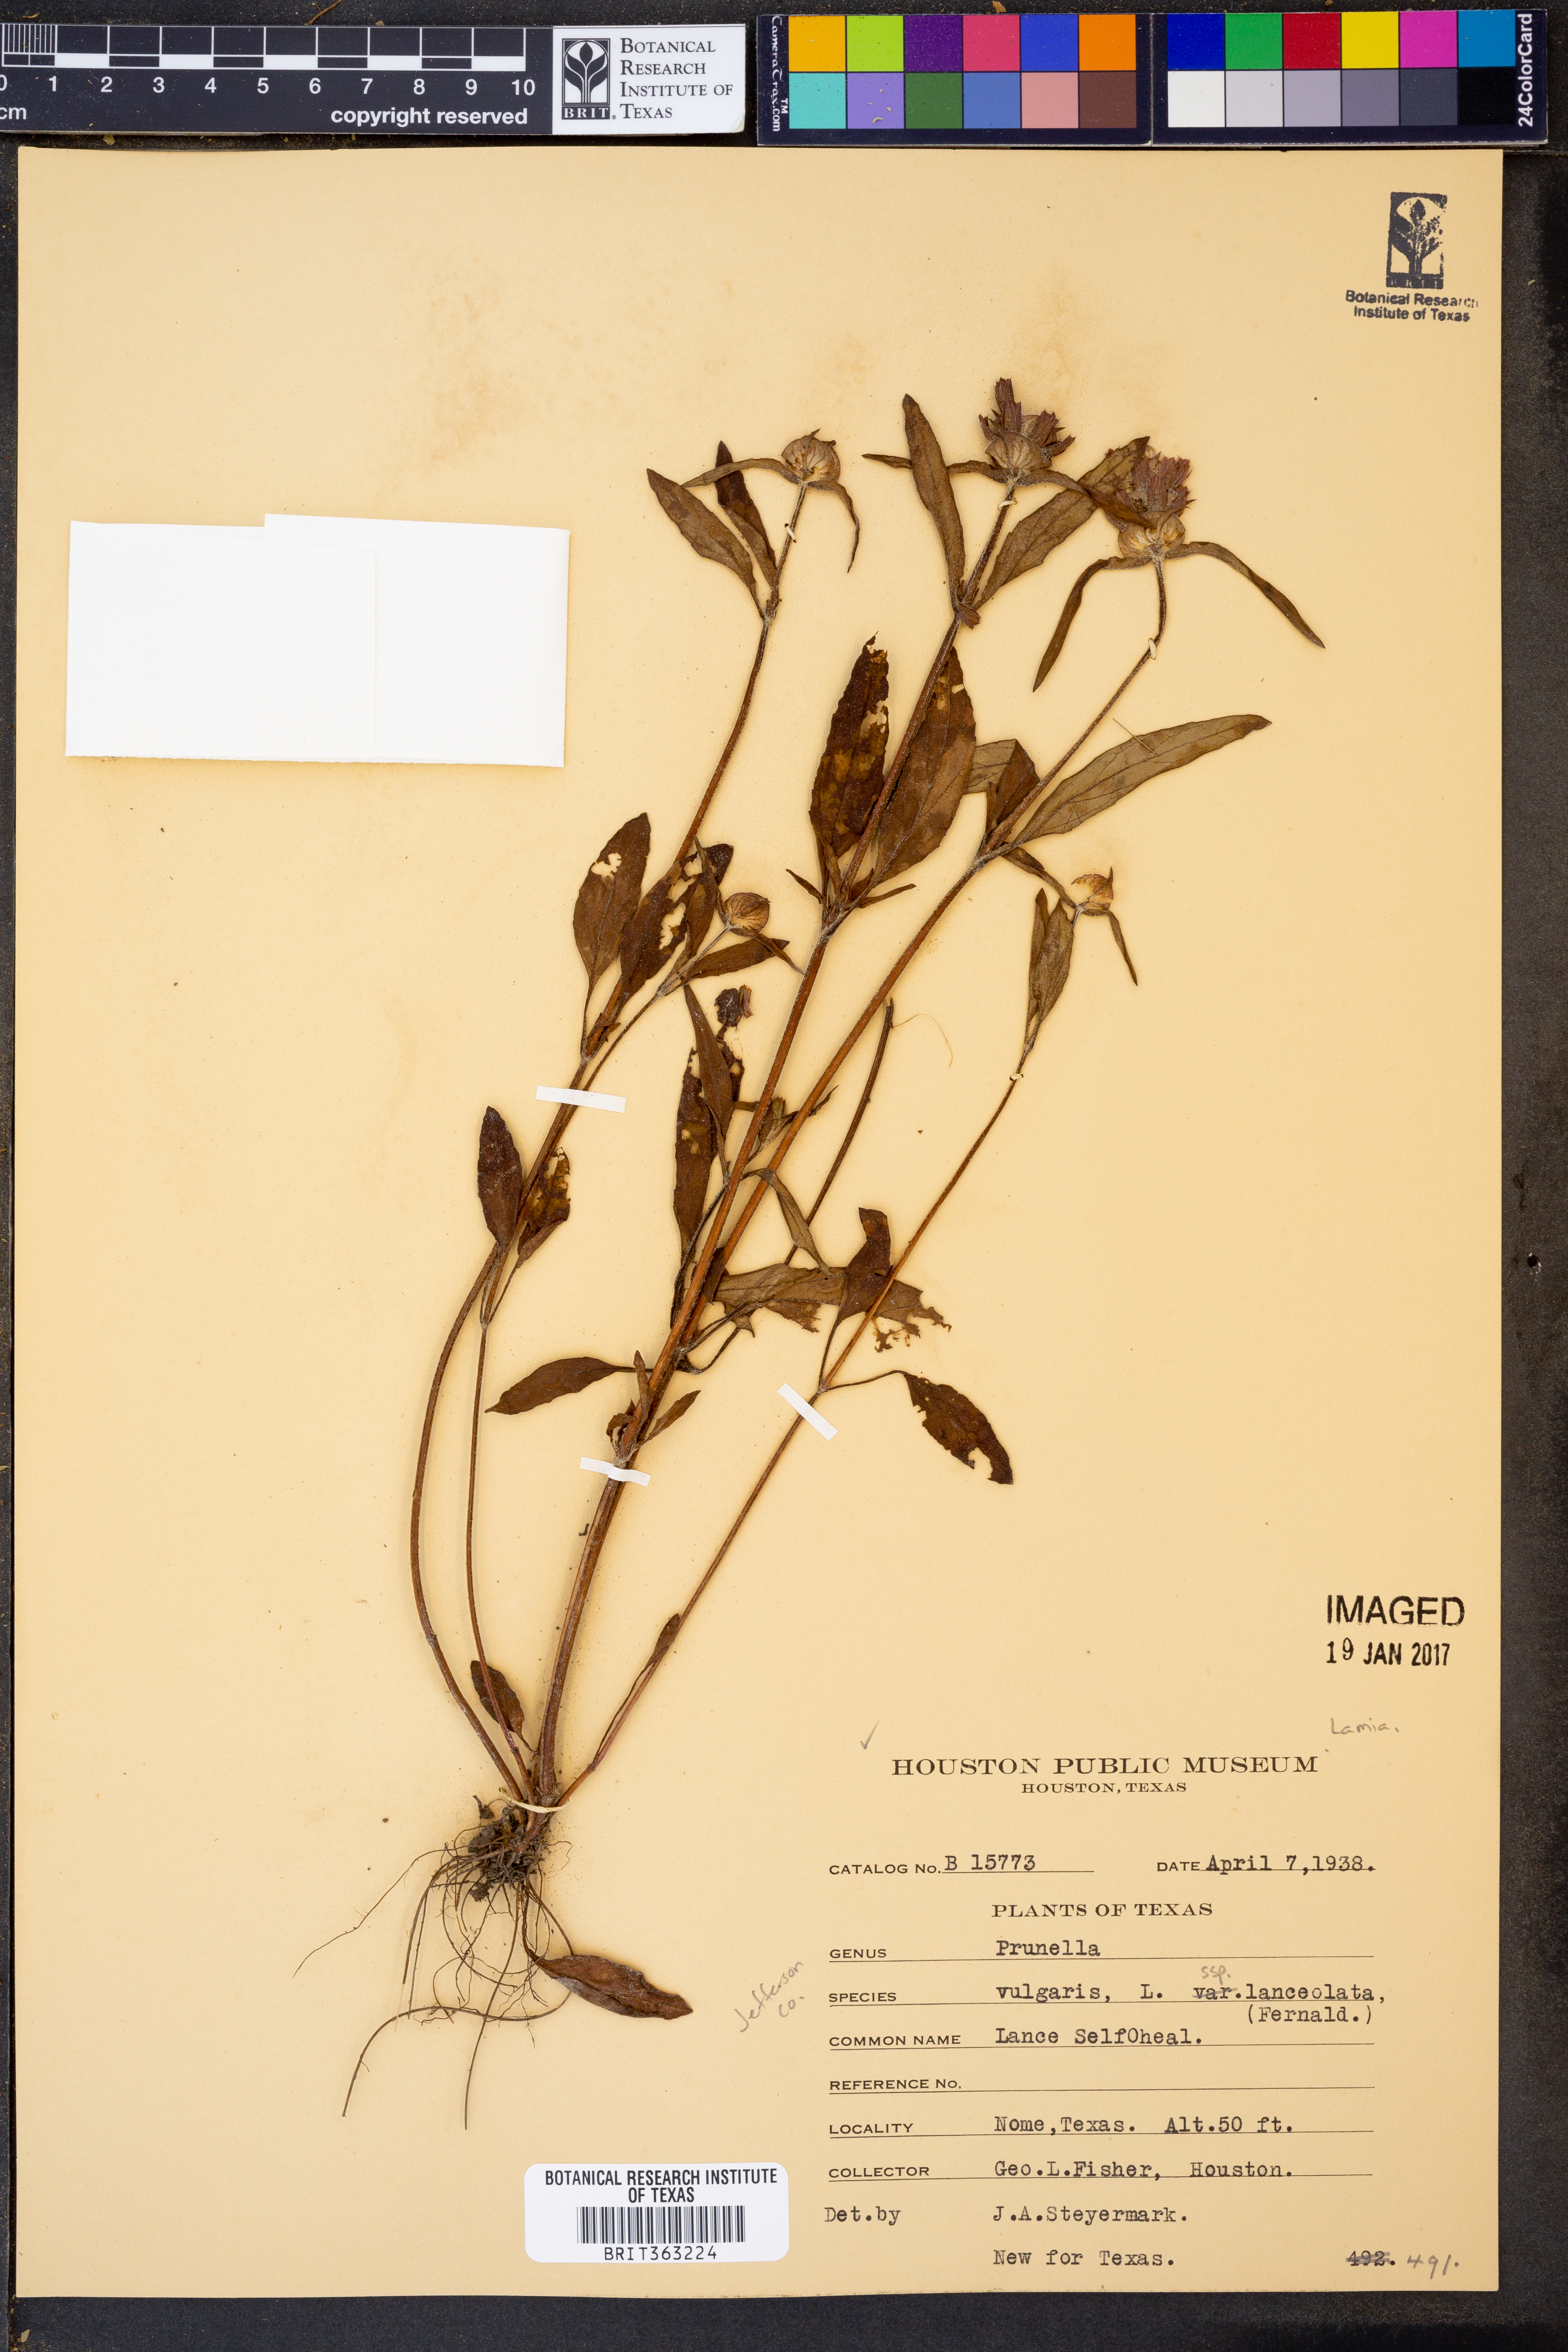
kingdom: Plantae
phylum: Tracheophyta
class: Magnoliopsida
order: Lamiales
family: Lamiaceae
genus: Prunella
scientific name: Prunella vulgaris
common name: Heal-all
